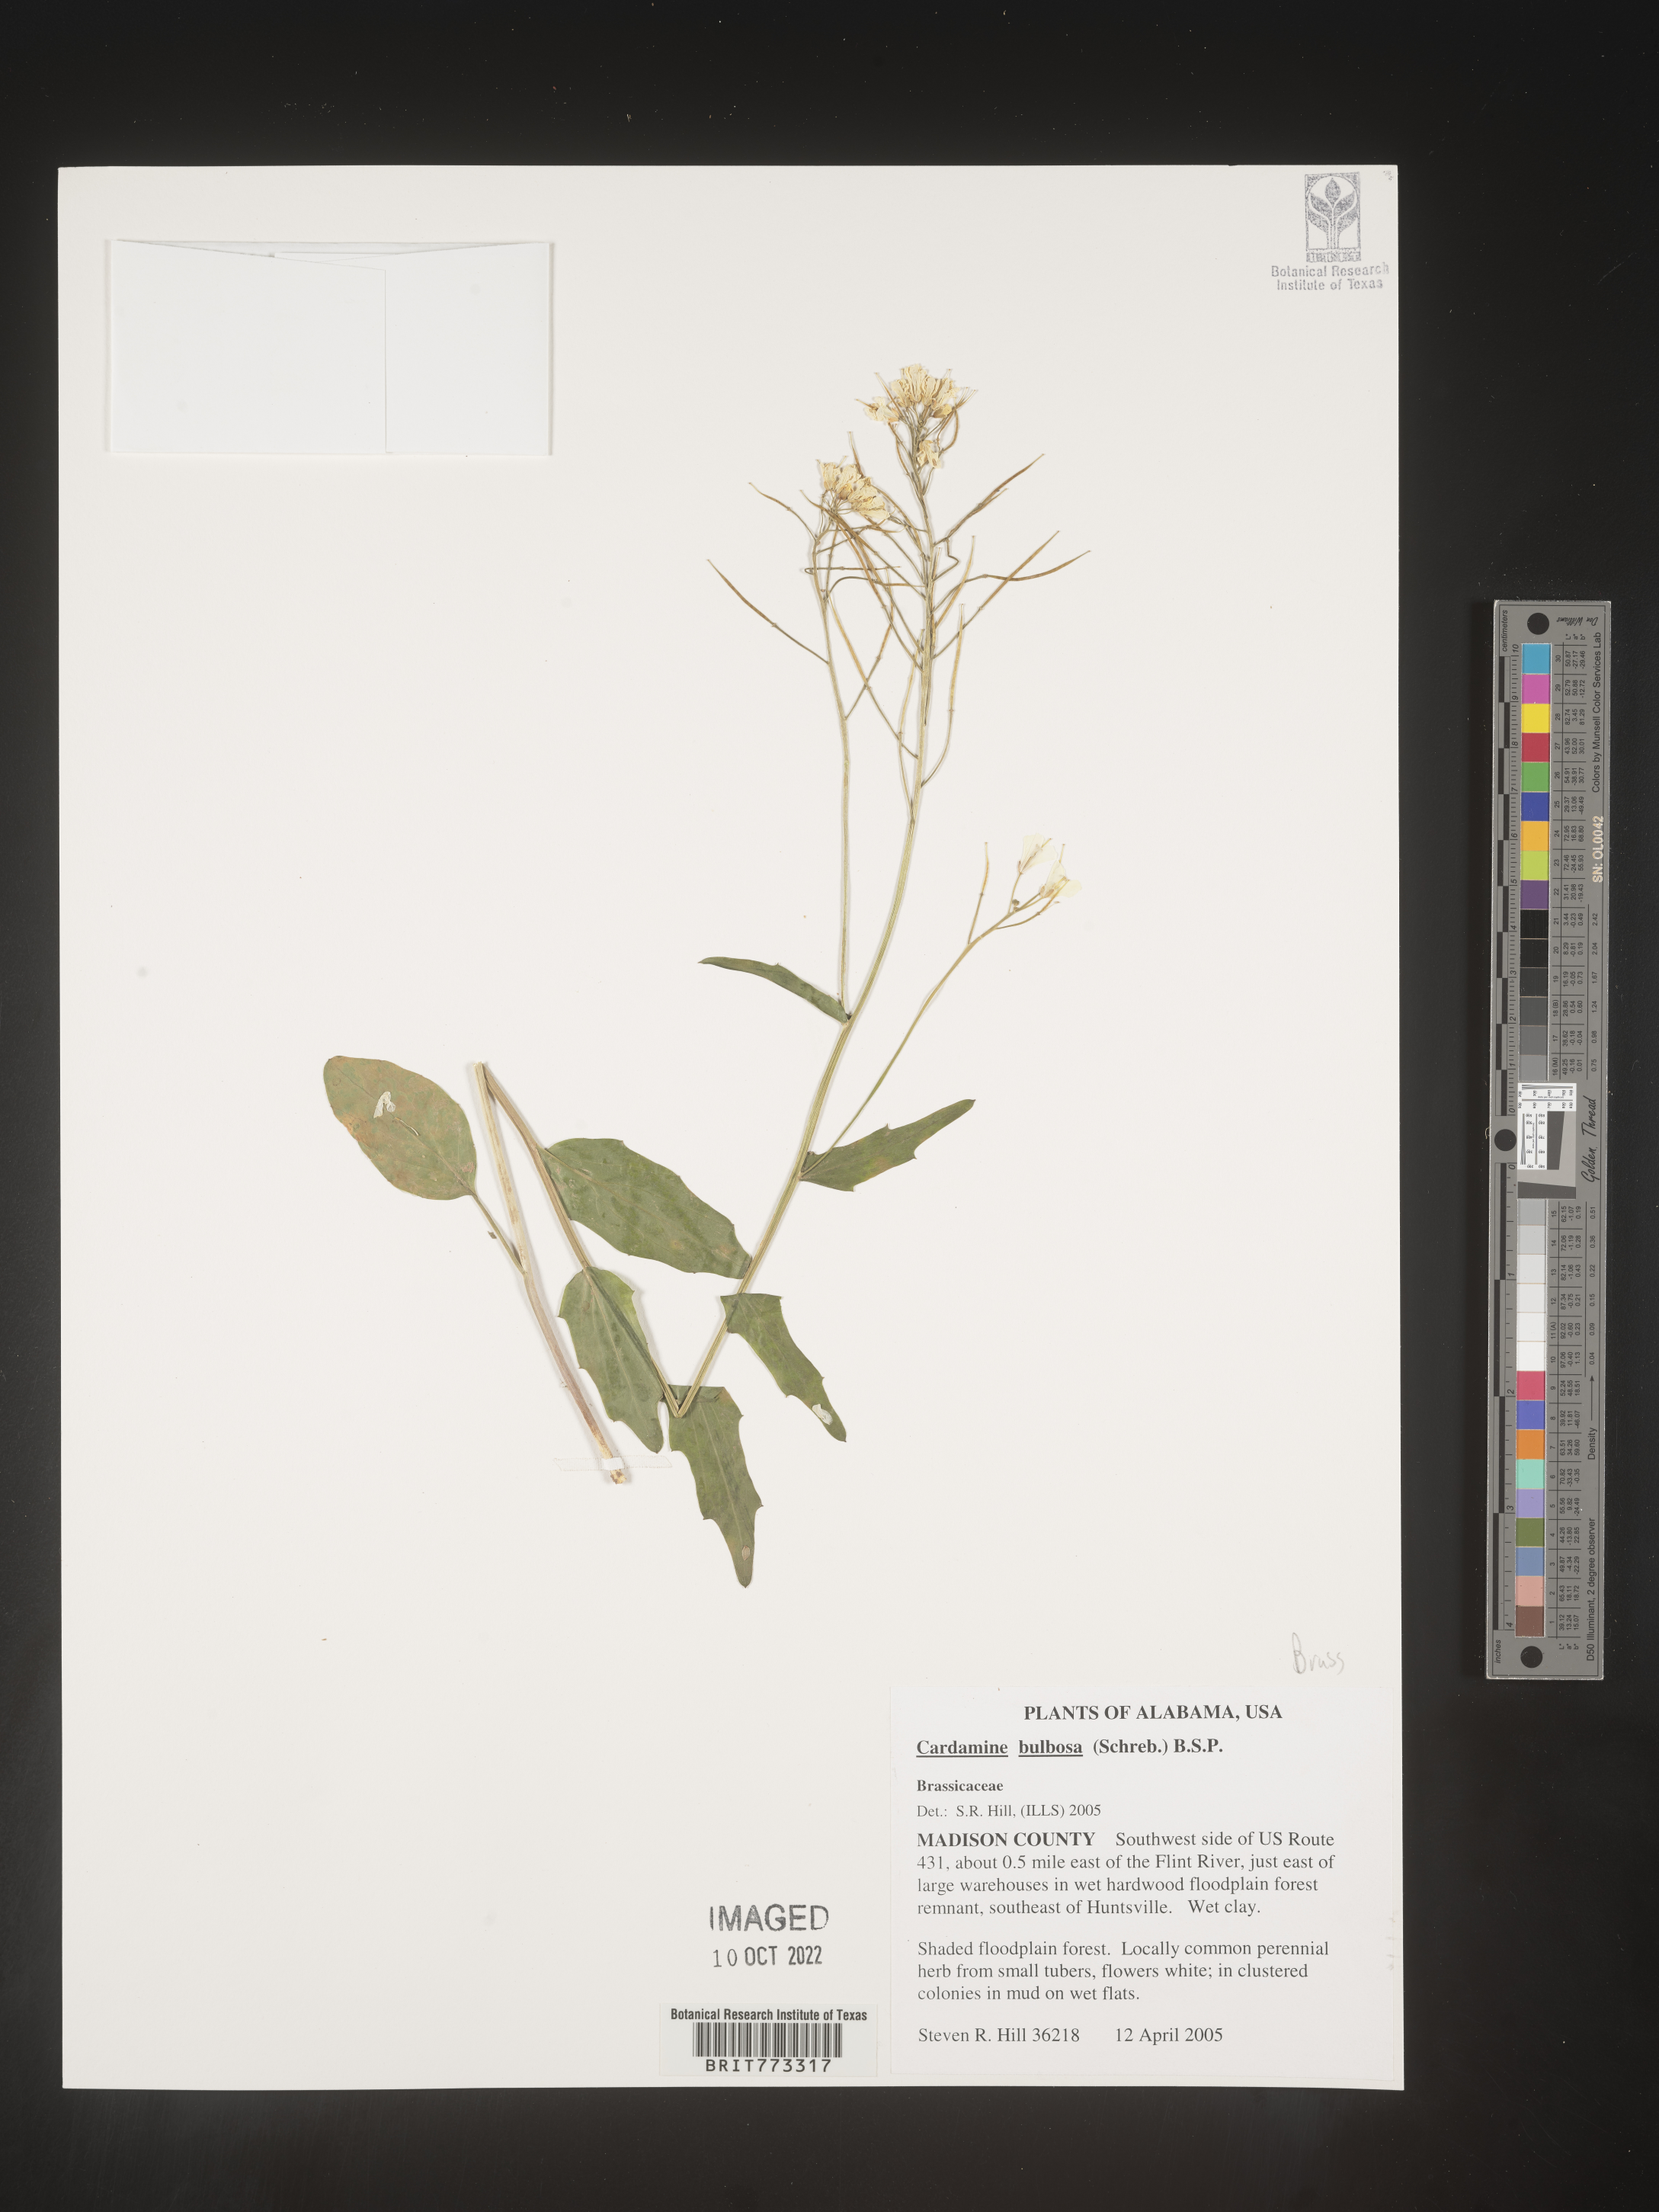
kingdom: Plantae
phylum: Tracheophyta
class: Magnoliopsida
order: Brassicales
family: Brassicaceae
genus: Cardamine
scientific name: Cardamine bulbosa
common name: Spring cress
